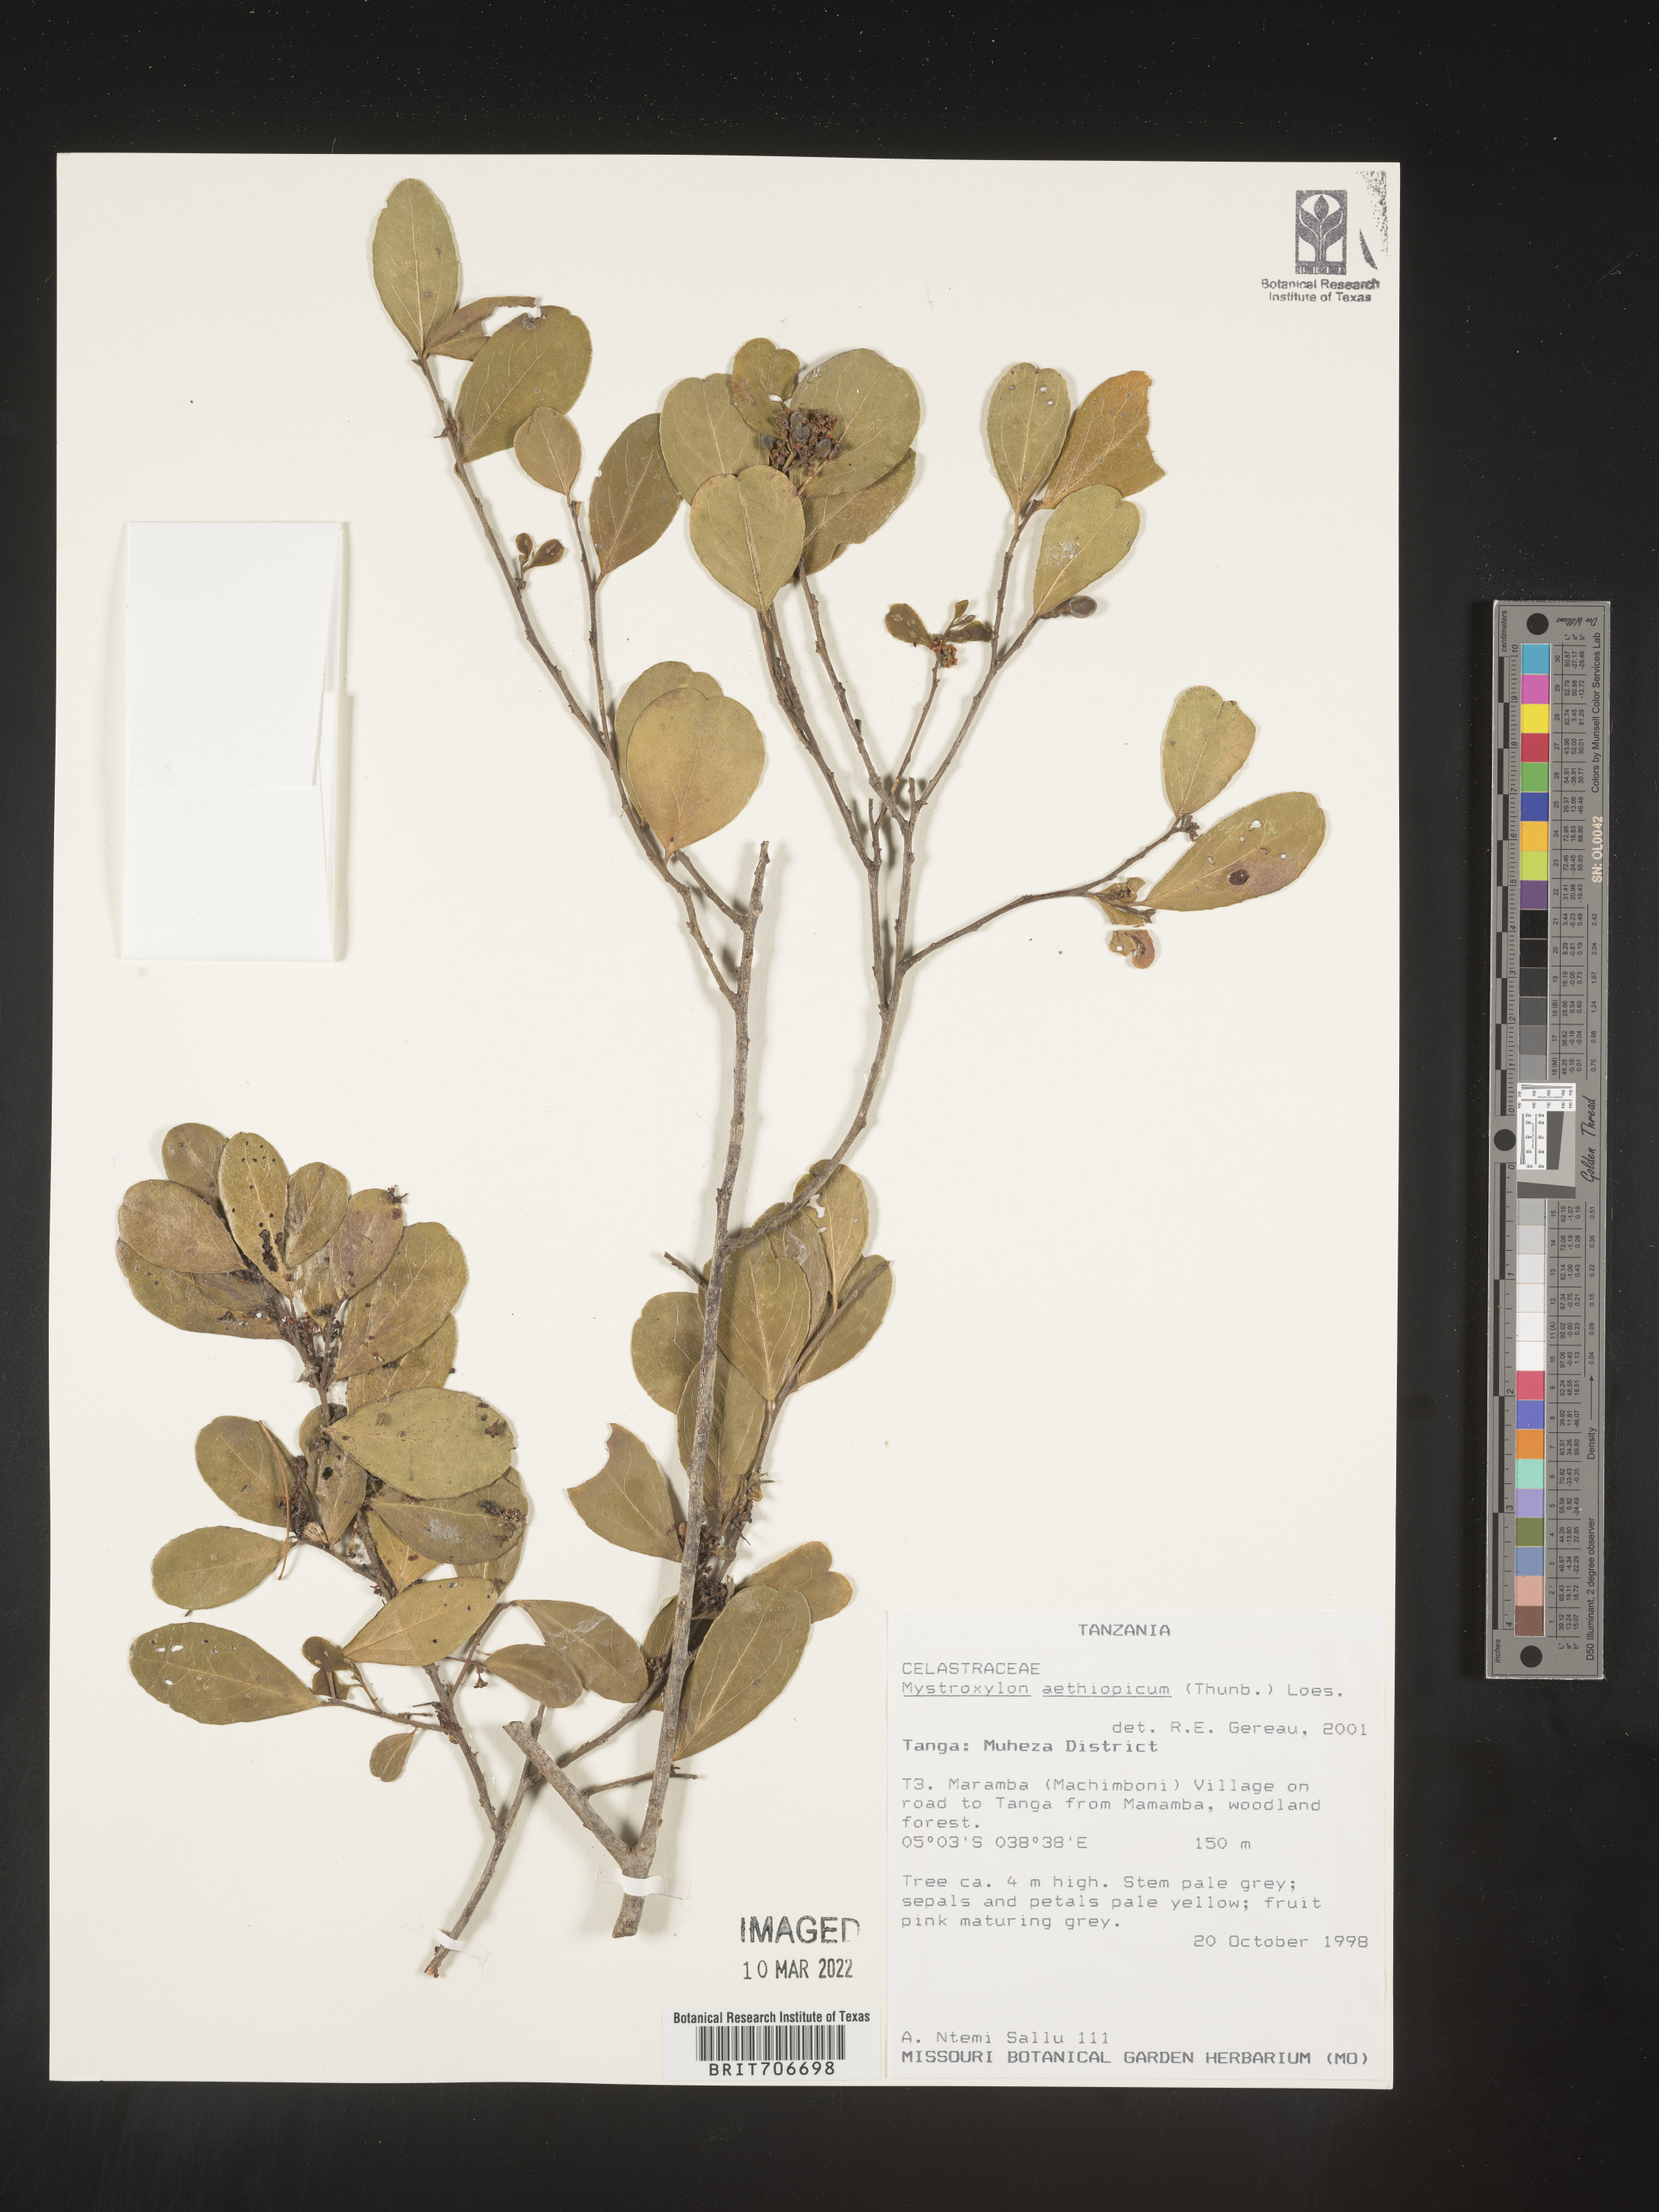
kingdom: Plantae
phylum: Tracheophyta
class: Magnoliopsida
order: Celastrales
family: Celastraceae
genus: Mystroxylon
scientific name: Mystroxylon
